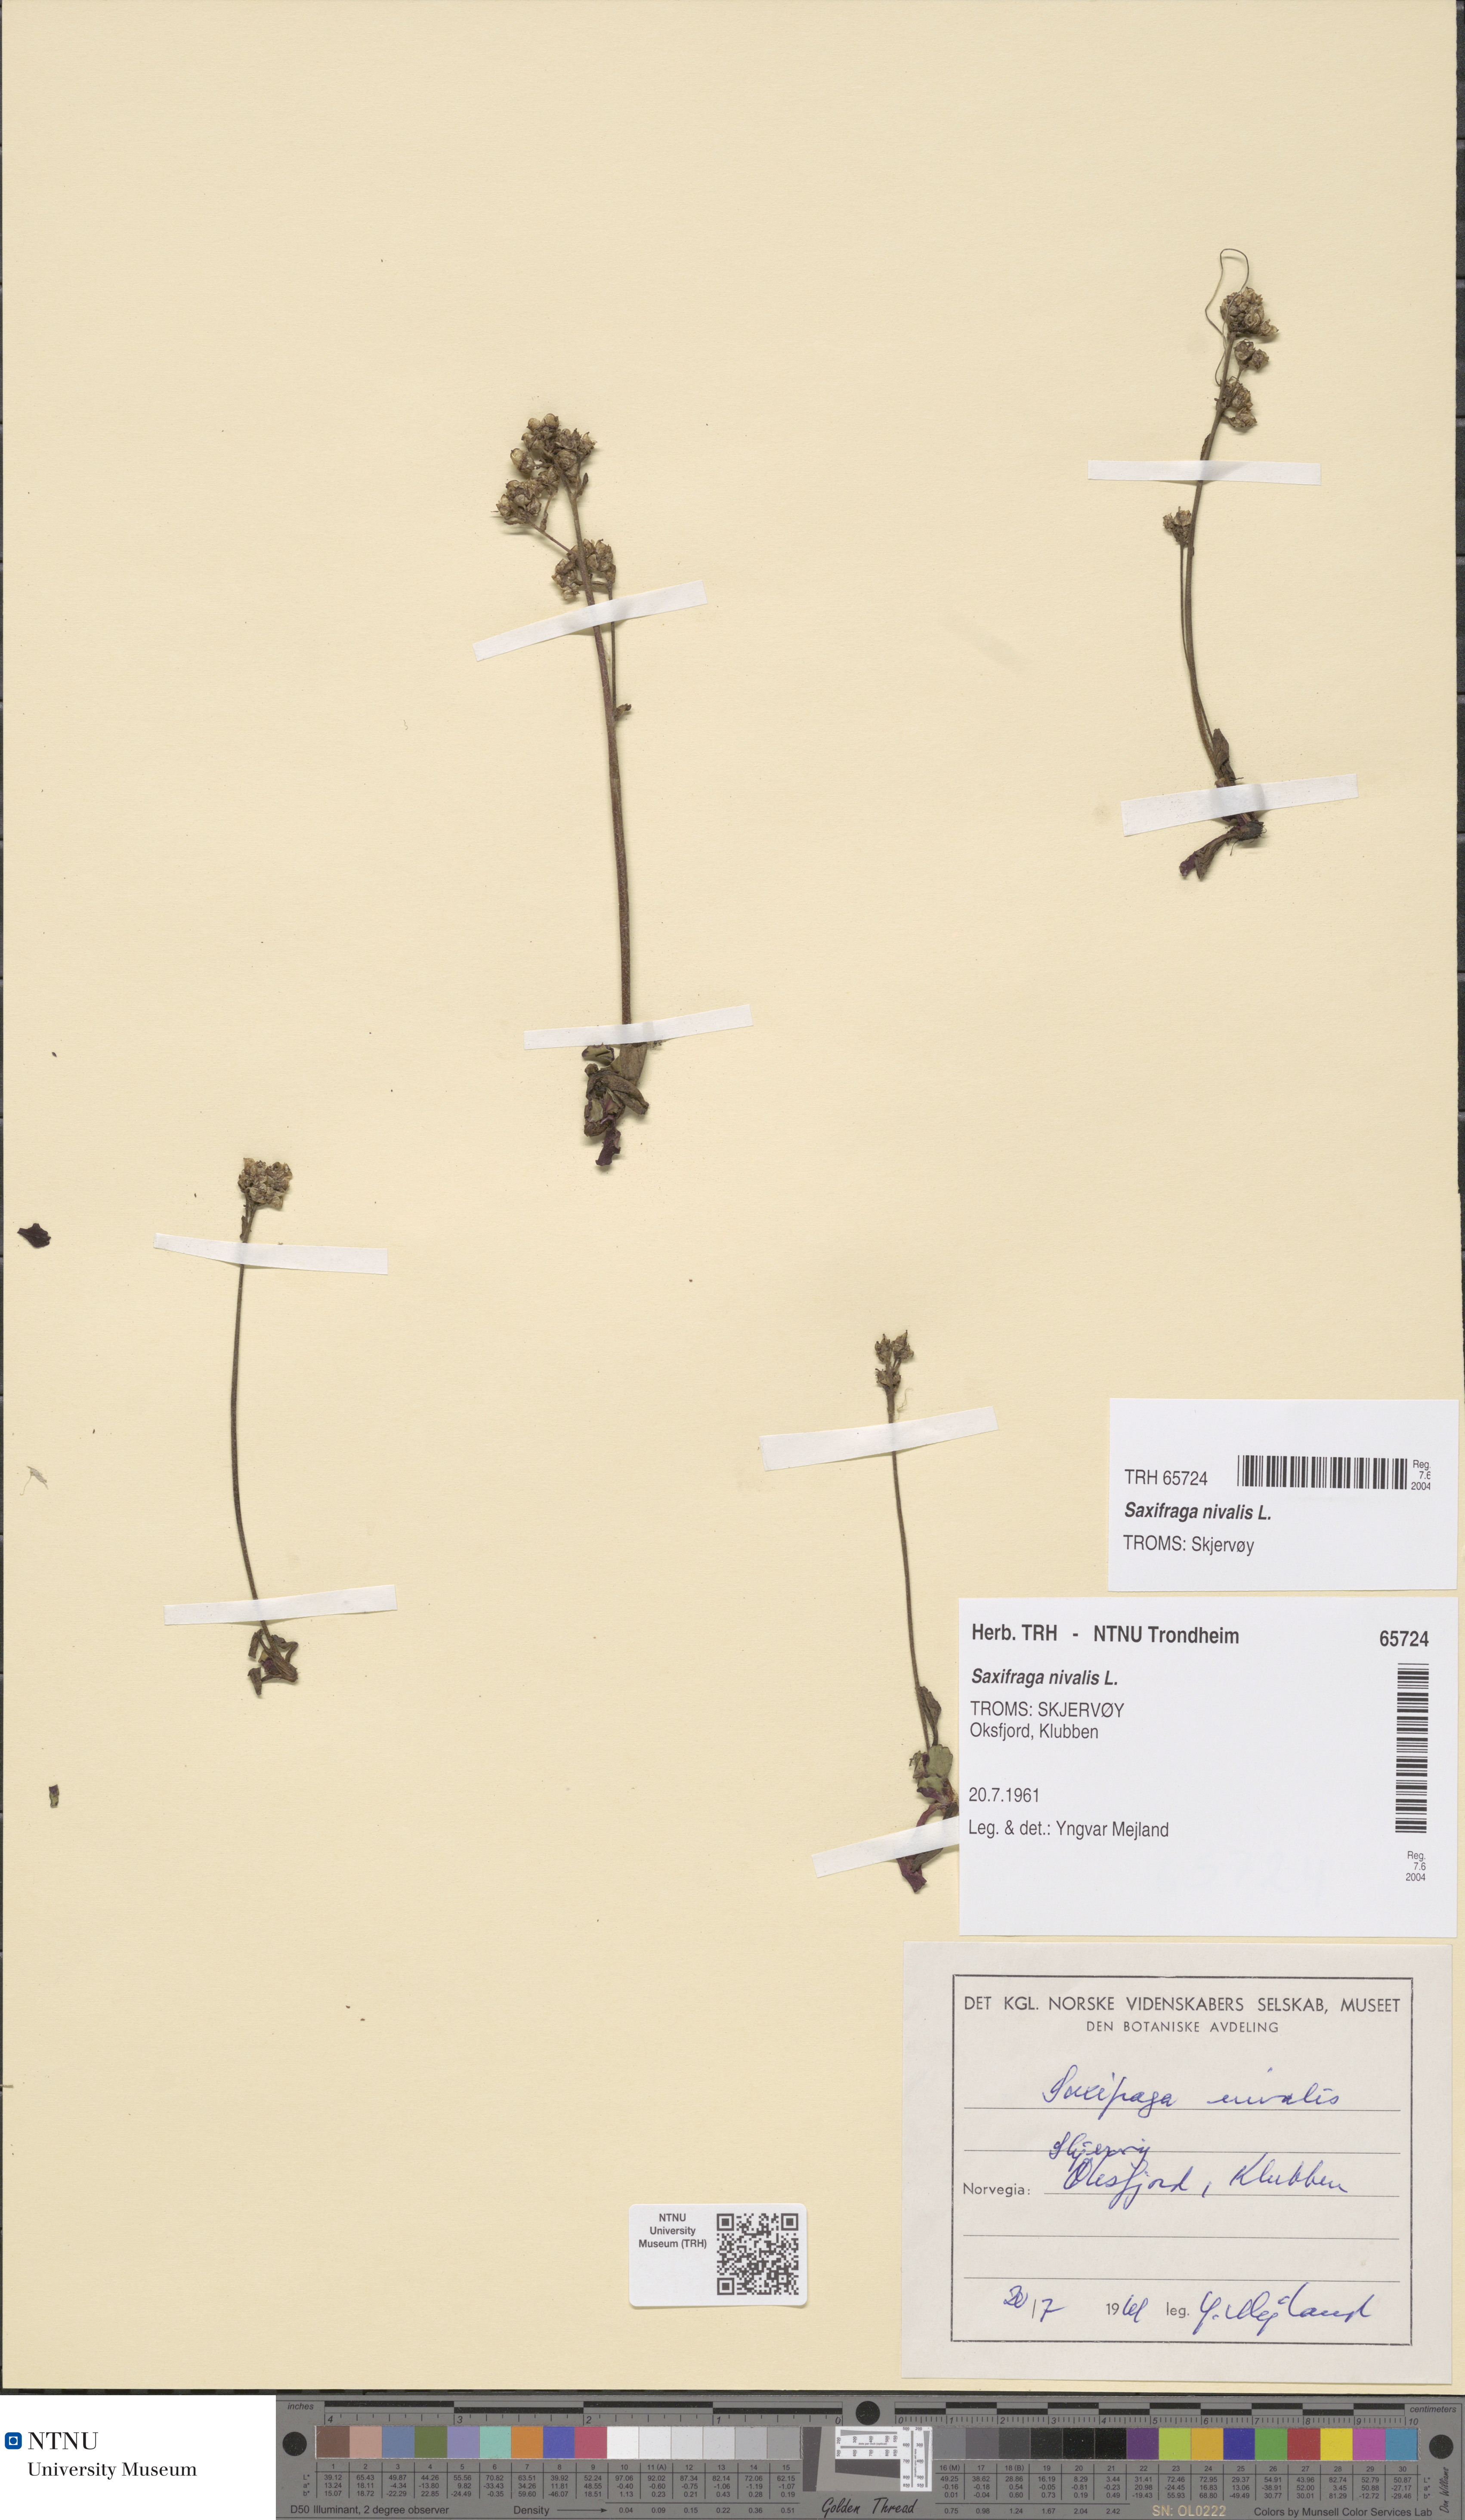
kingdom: Plantae
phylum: Tracheophyta
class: Magnoliopsida
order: Saxifragales
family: Saxifragaceae
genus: Micranthes
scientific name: Micranthes nivalis
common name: Alpine saxifrage
